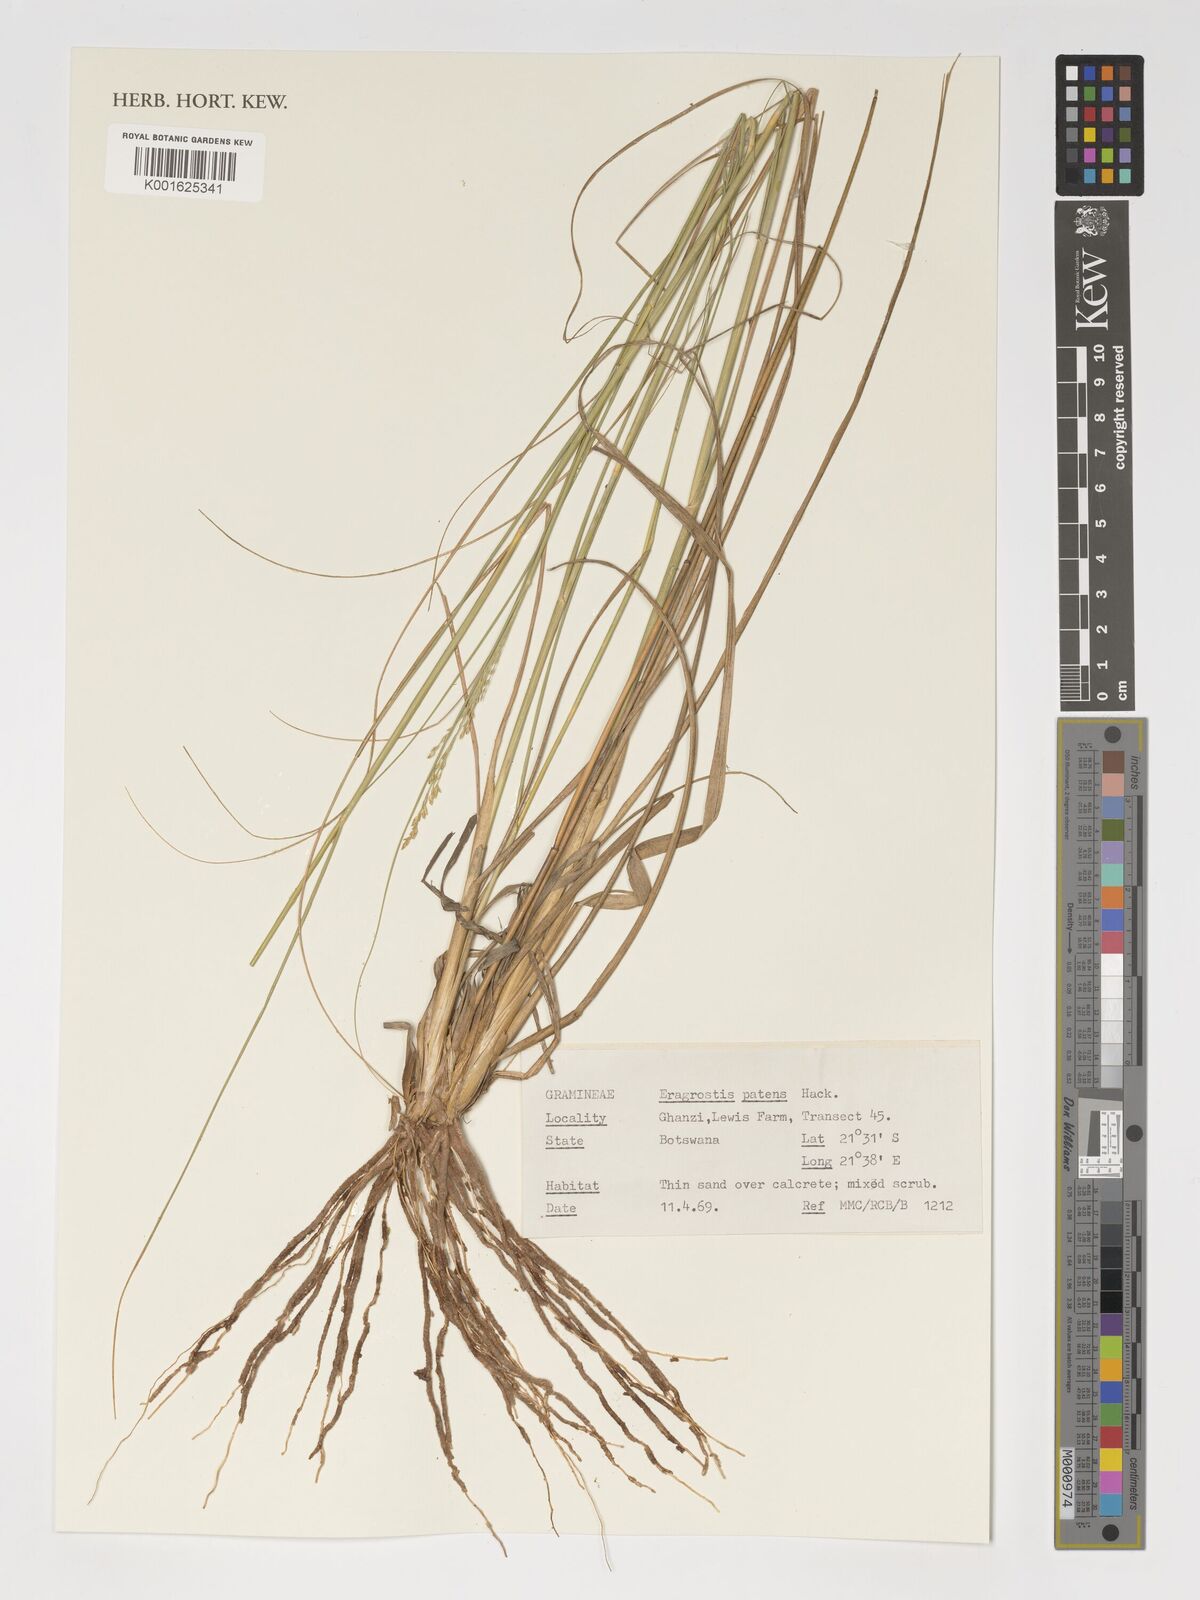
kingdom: Plantae
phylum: Tracheophyta
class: Liliopsida
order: Poales
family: Poaceae
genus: Eragrostis
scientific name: Eragrostis patens
